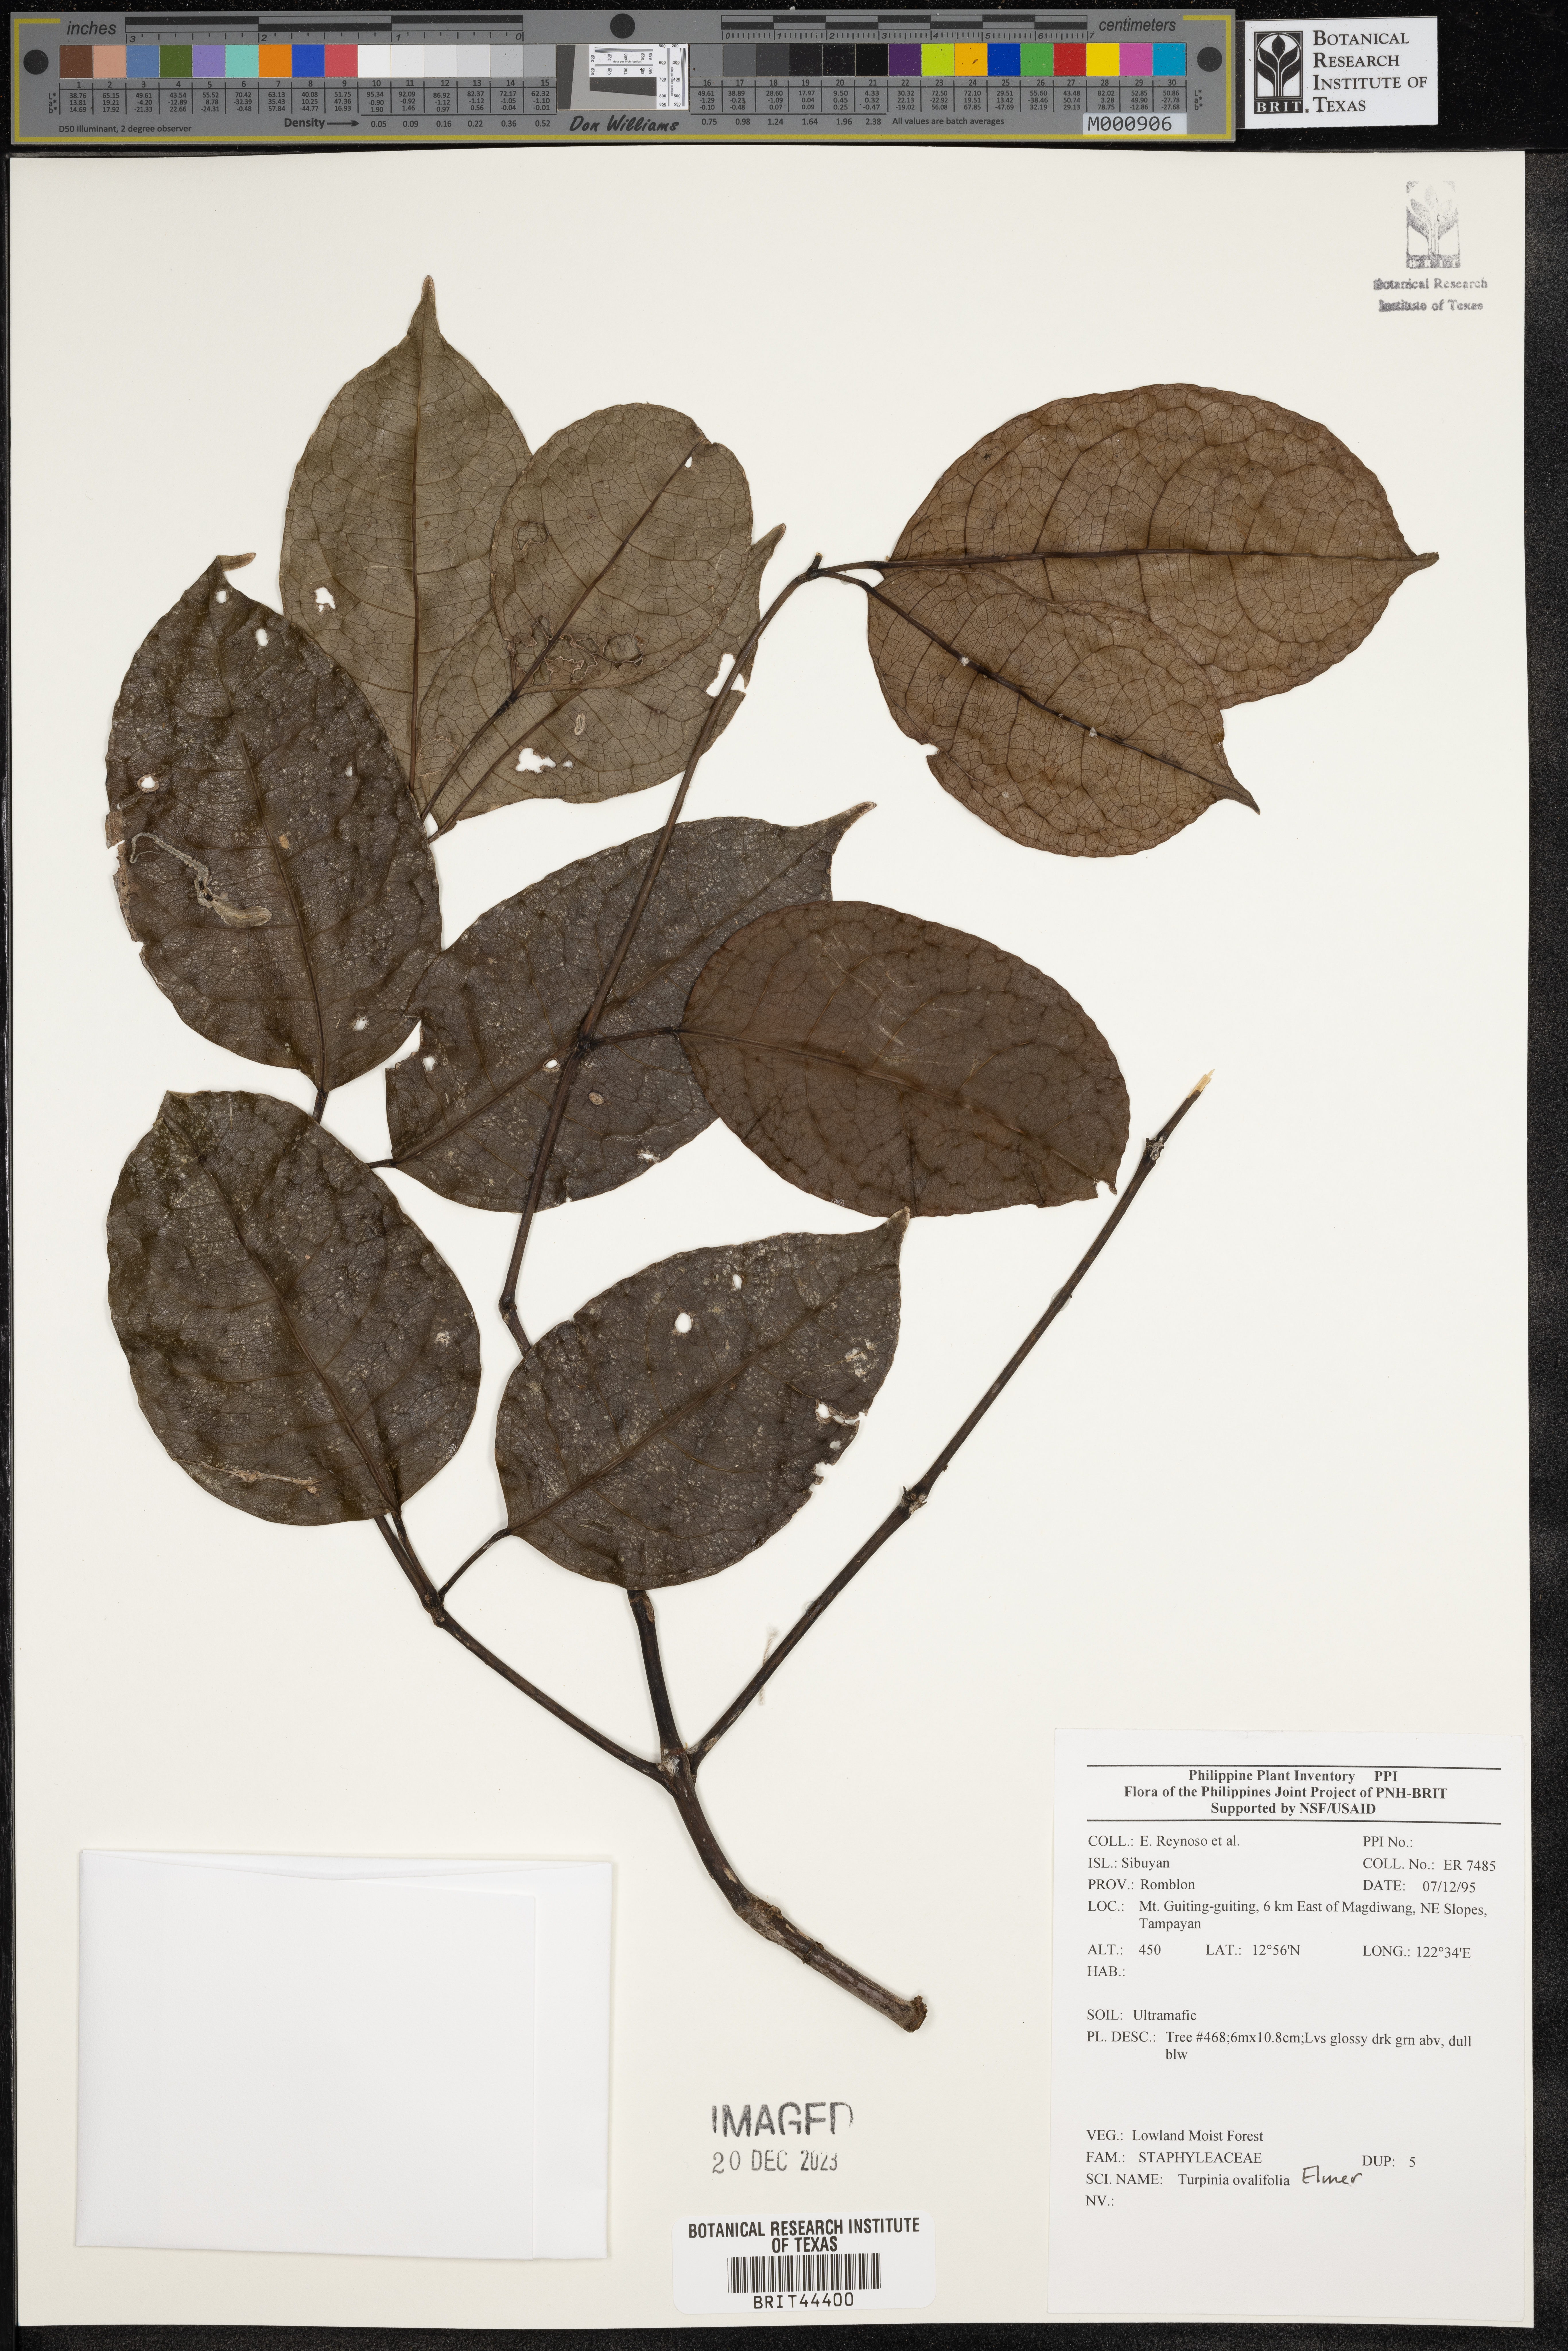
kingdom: Plantae
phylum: Tracheophyta
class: Magnoliopsida
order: Crossosomatales
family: Staphyleaceae
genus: Turpinia
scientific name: Turpinia
